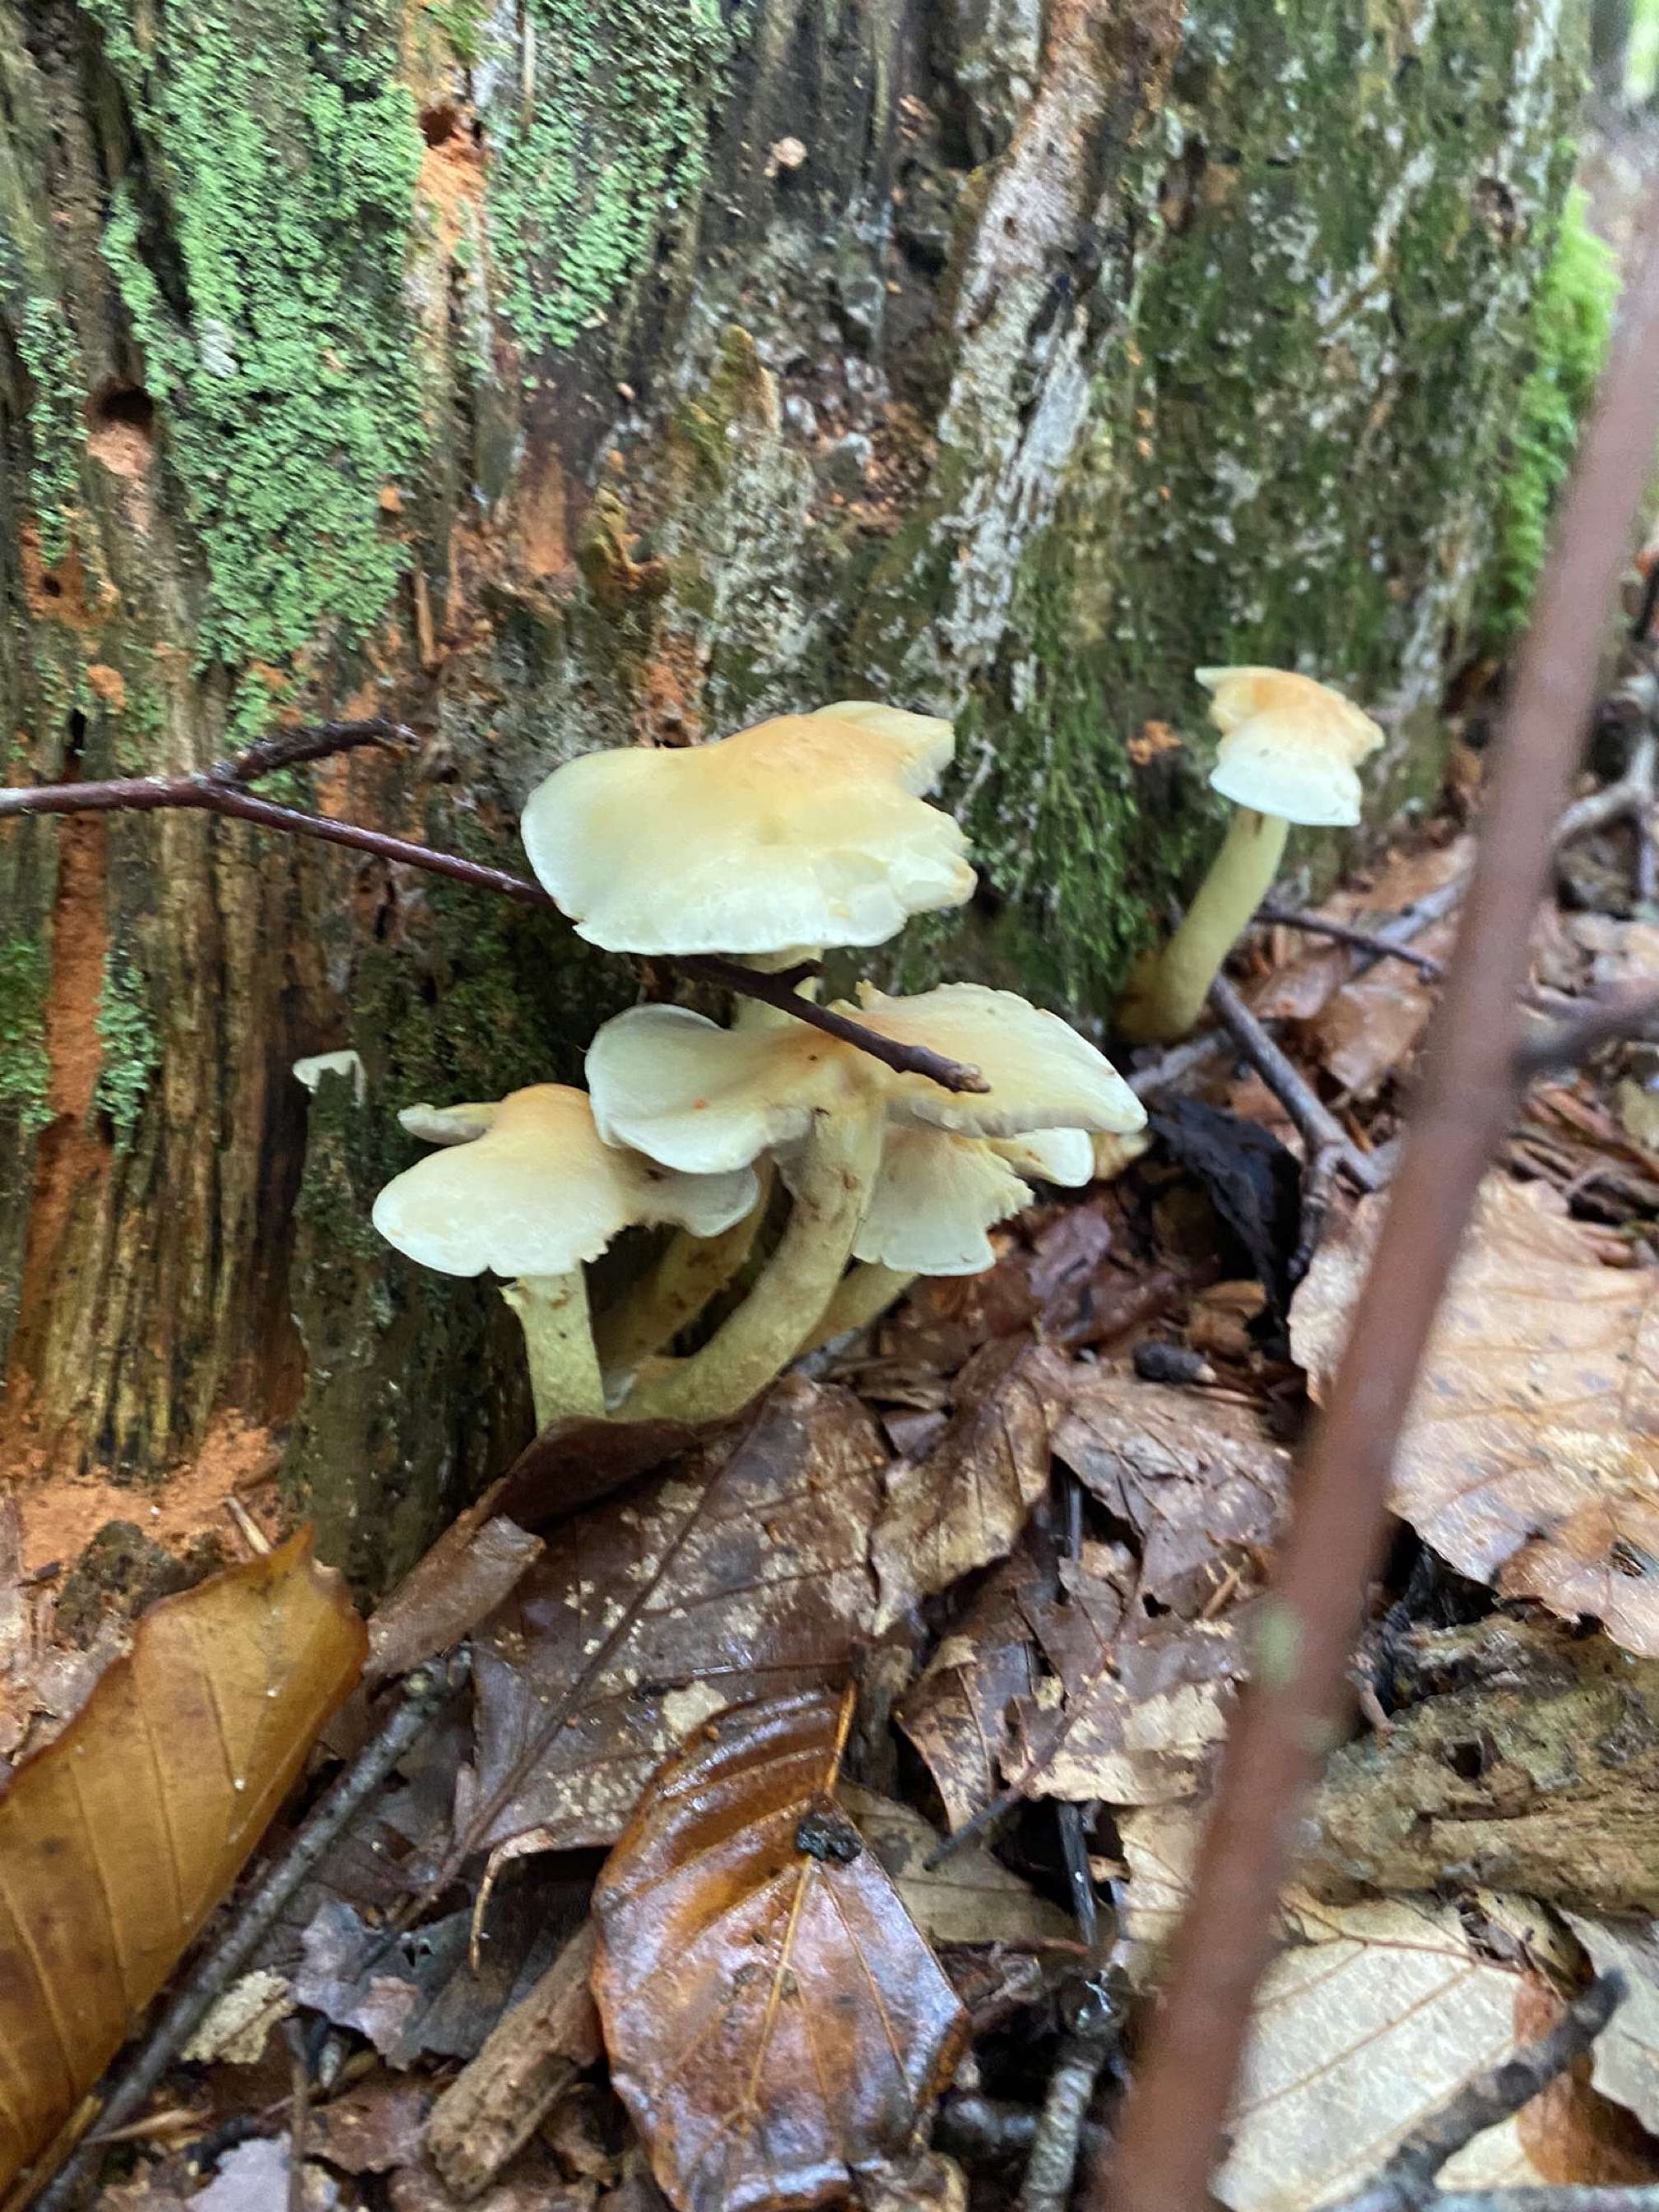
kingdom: Fungi
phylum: Basidiomycota
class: Agaricomycetes
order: Agaricales
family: Strophariaceae
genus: Hypholoma
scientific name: Hypholoma fasciculare
